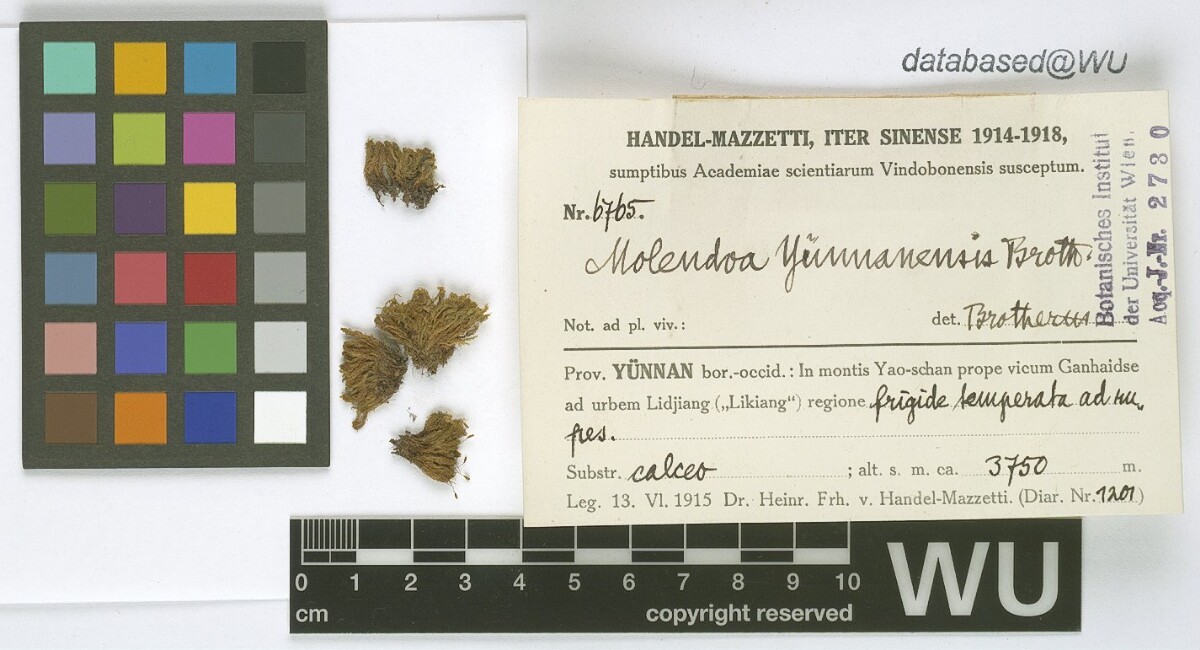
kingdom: Plantae
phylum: Bryophyta
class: Bryopsida
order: Pottiales
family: Pottiaceae
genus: Molendoa
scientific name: Molendoa sendtneriana
